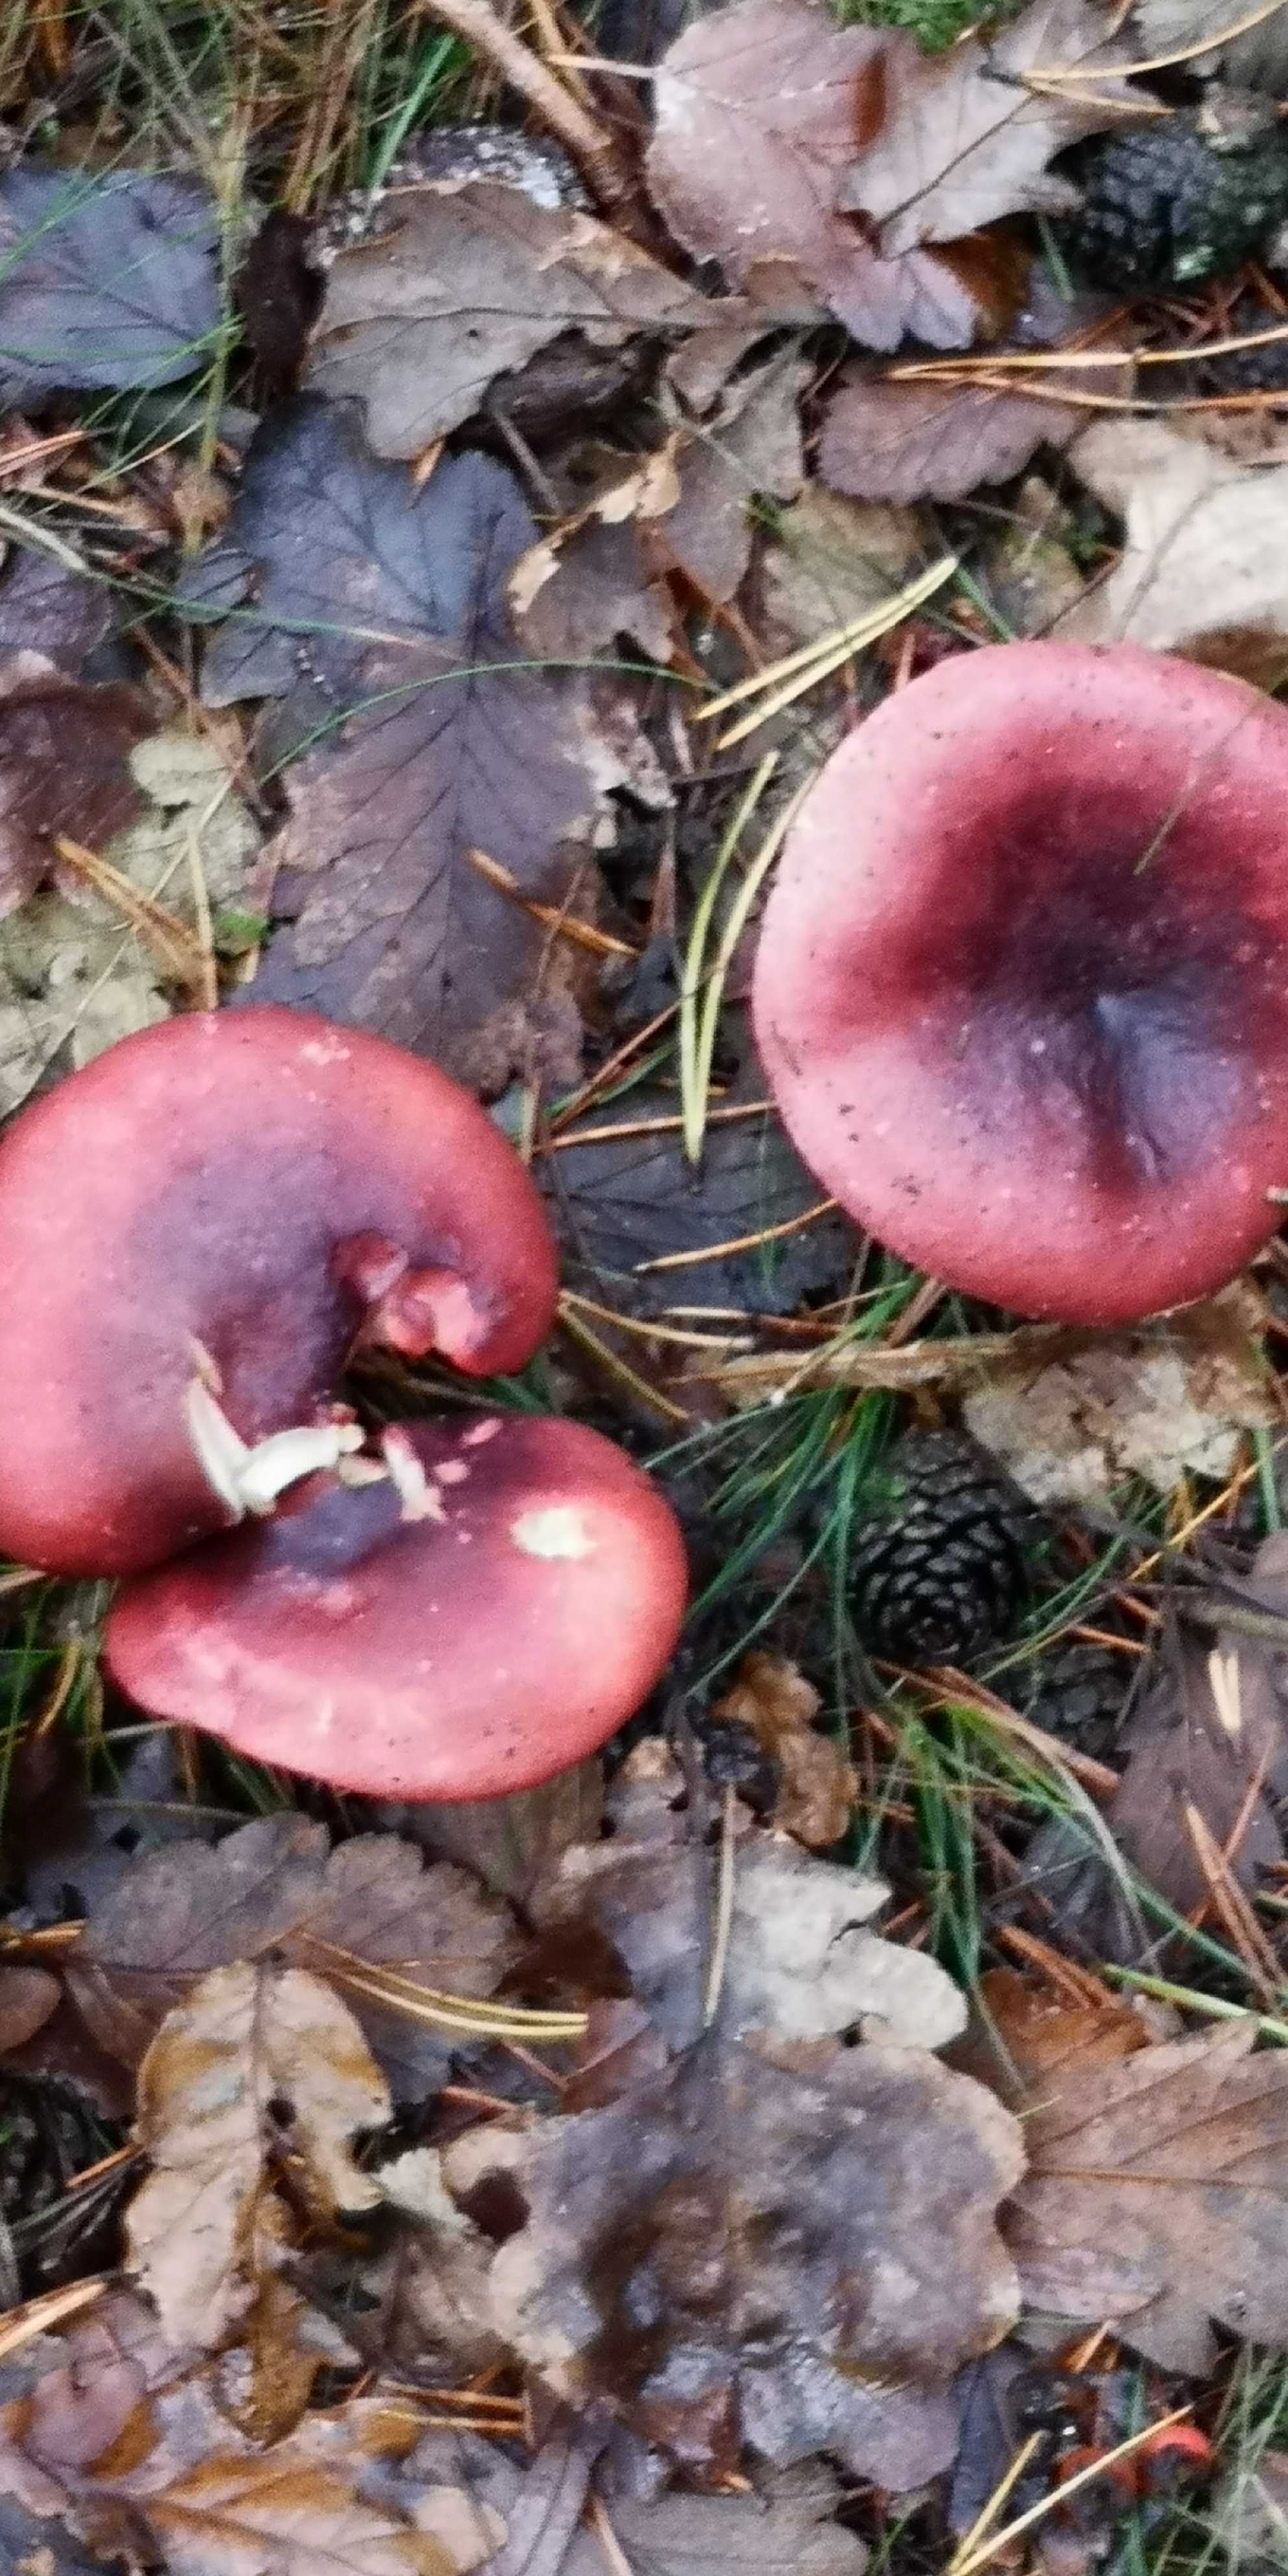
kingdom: Fungi
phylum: Basidiomycota
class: Agaricomycetes
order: Russulales
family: Russulaceae
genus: Russula
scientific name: Russula
